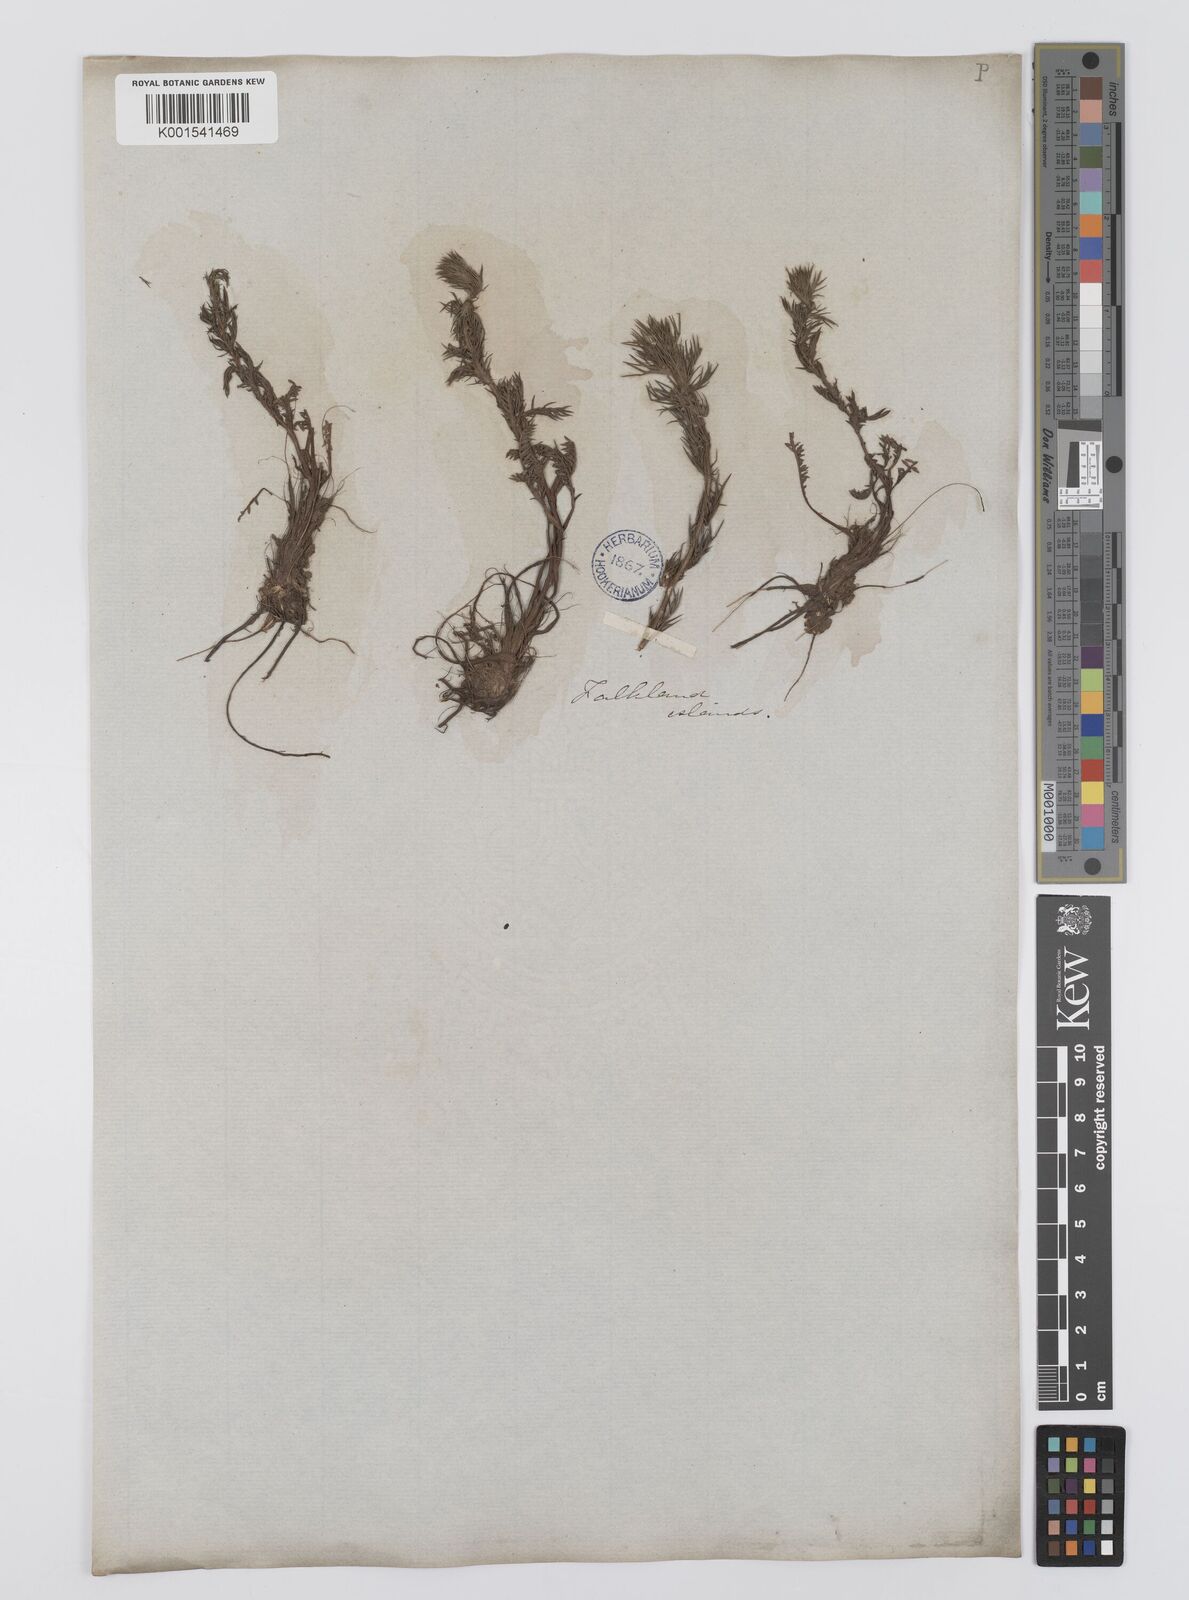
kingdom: Plantae
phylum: Tracheophyta
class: Magnoliopsida
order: Asterales
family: Asteraceae
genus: Nassauvia
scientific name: Nassauvia
